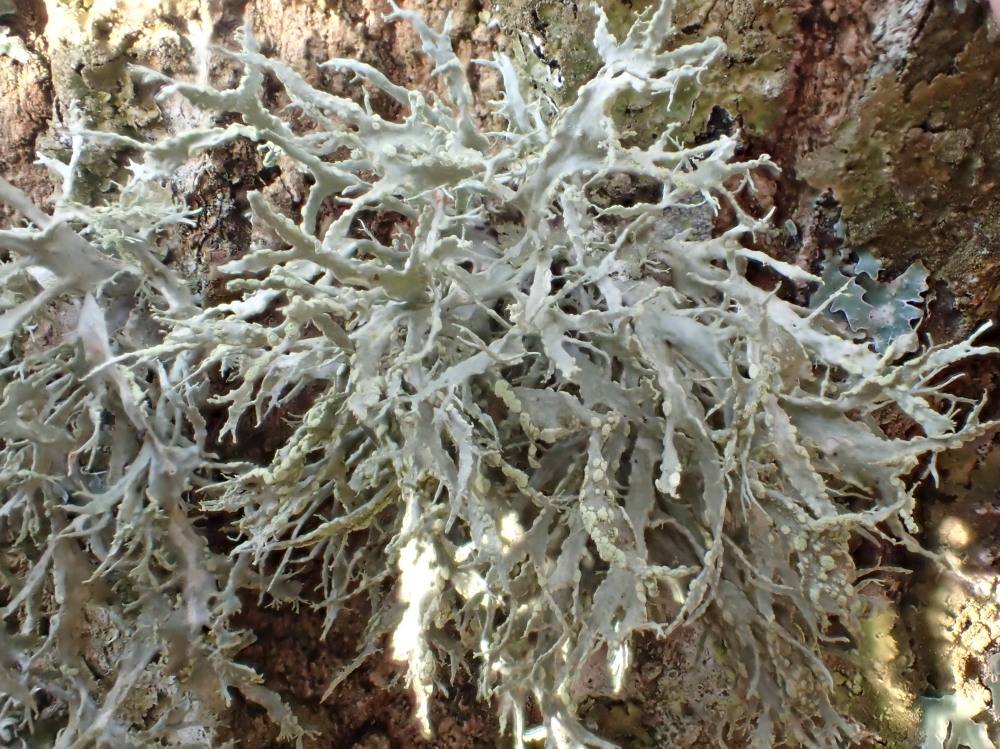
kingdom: Fungi
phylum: Ascomycota
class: Lecanoromycetes
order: Lecanorales
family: Ramalinaceae
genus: Ramalina
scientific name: Ramalina farinacea
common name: melet grenlav
